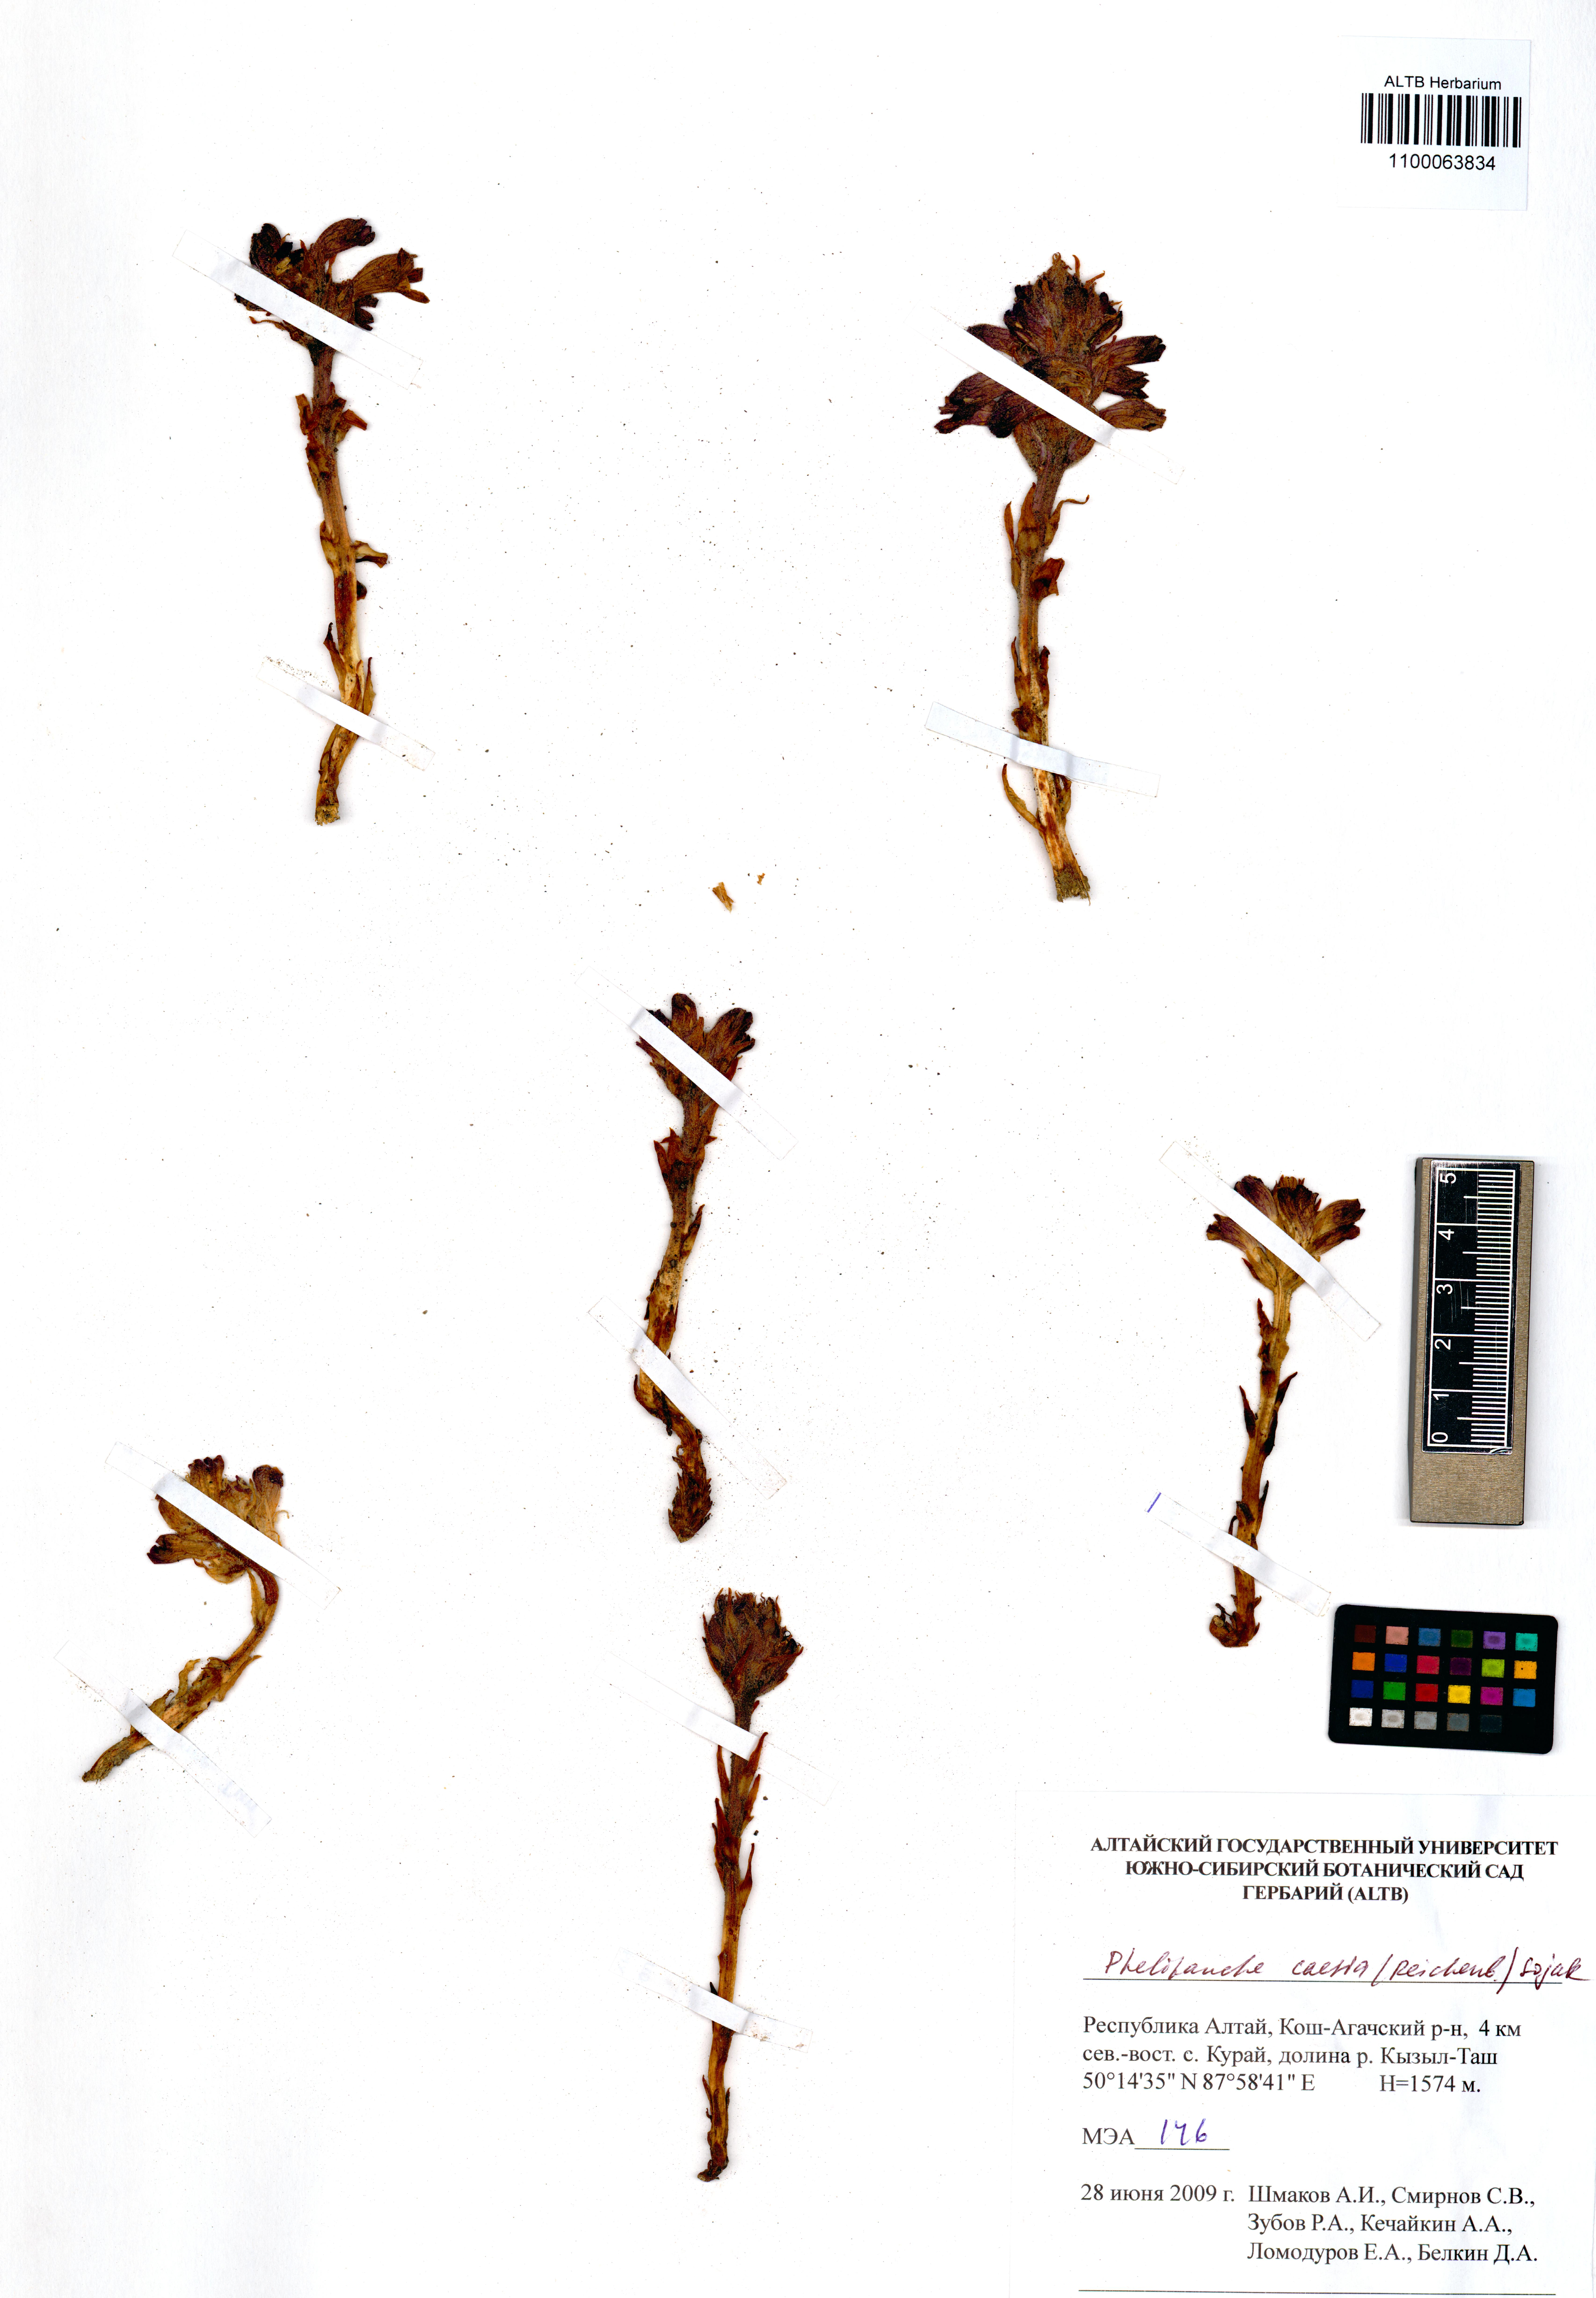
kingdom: Plantae
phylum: Tracheophyta
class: Magnoliopsida
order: Lamiales
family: Orobanchaceae
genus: Phelipanche
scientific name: Phelipanche caesia
